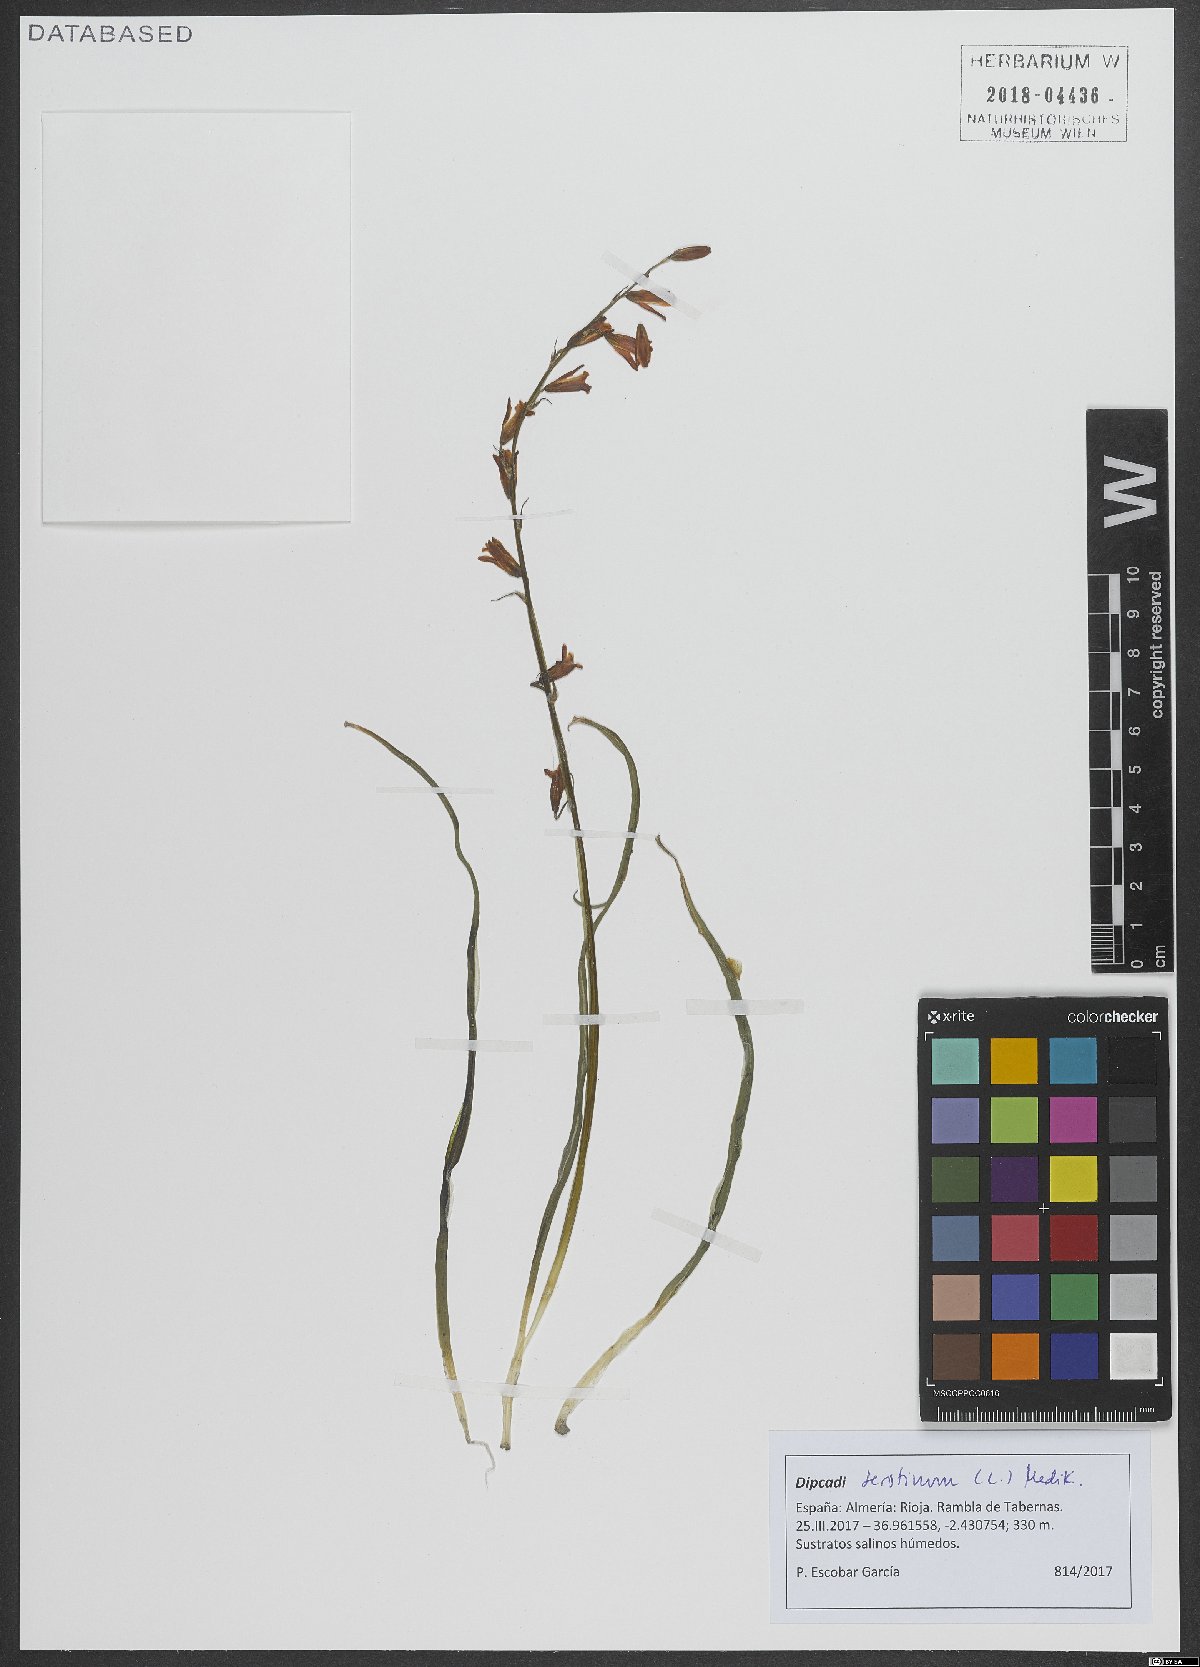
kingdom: Plantae
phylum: Tracheophyta
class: Liliopsida
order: Asparagales
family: Asparagaceae
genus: Dipcadi
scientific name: Dipcadi serotinum
